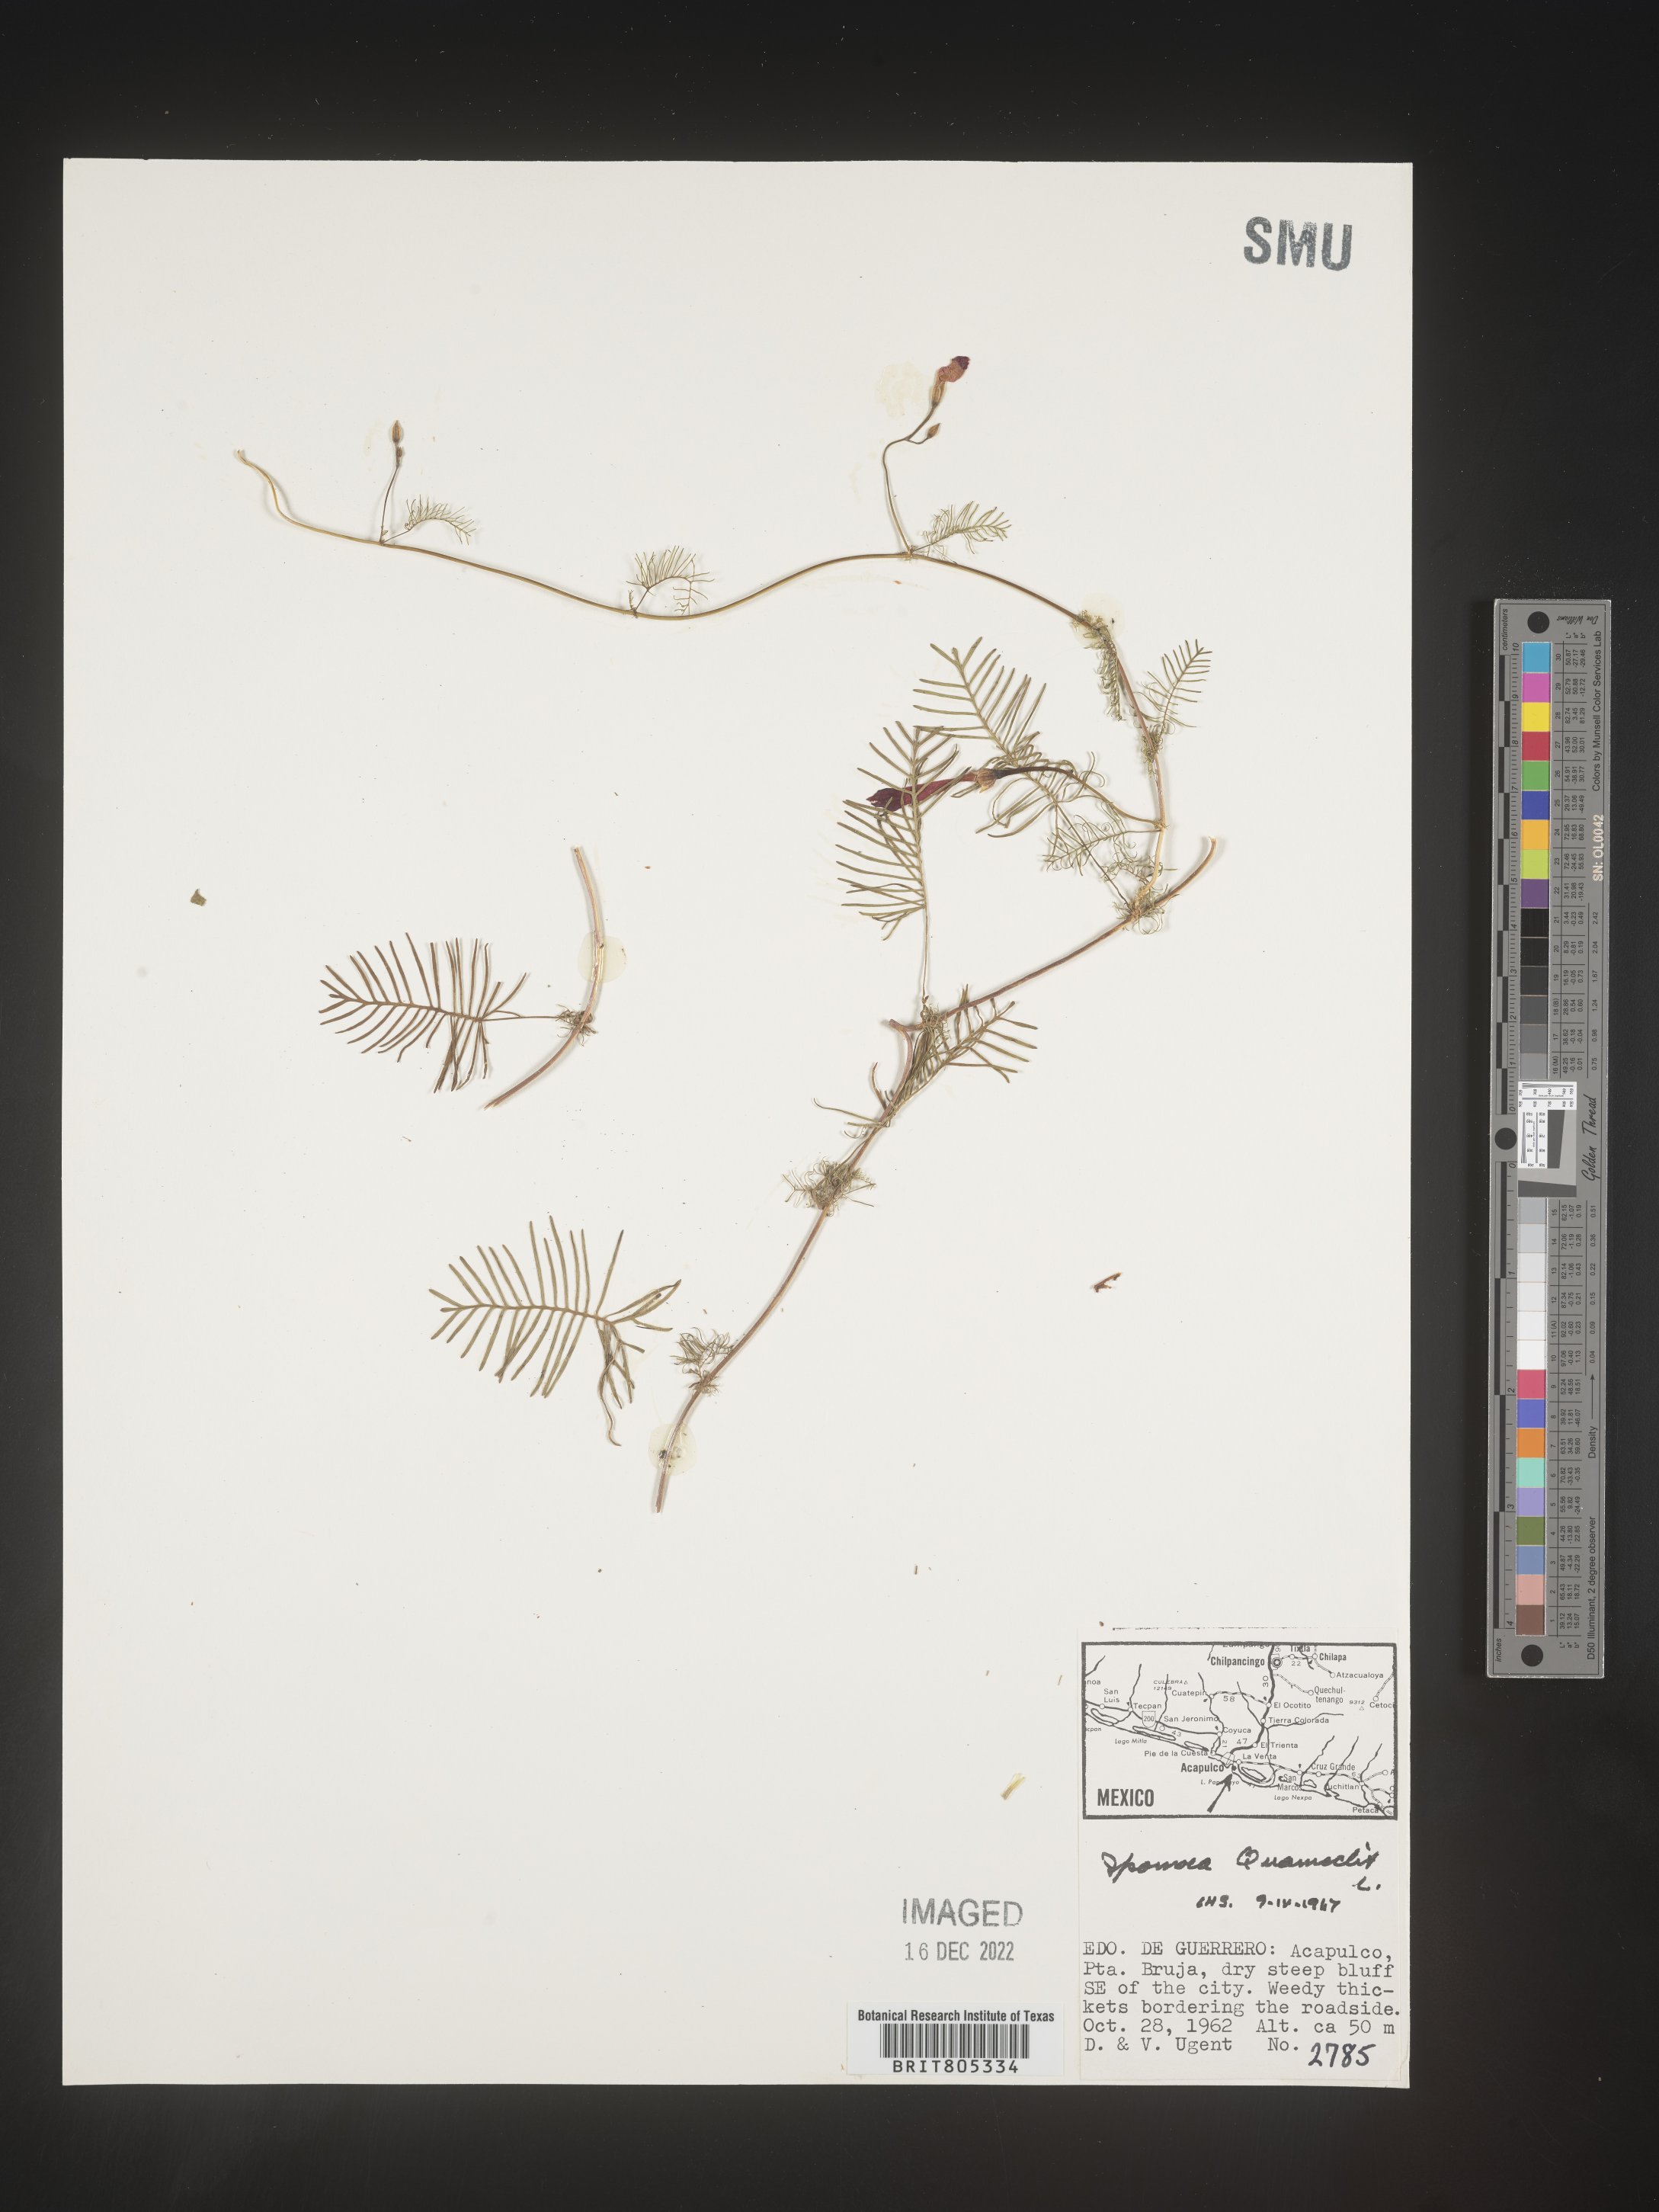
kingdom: Plantae
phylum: Tracheophyta
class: Magnoliopsida
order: Solanales
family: Convolvulaceae
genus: Ipomoea
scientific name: Ipomoea
